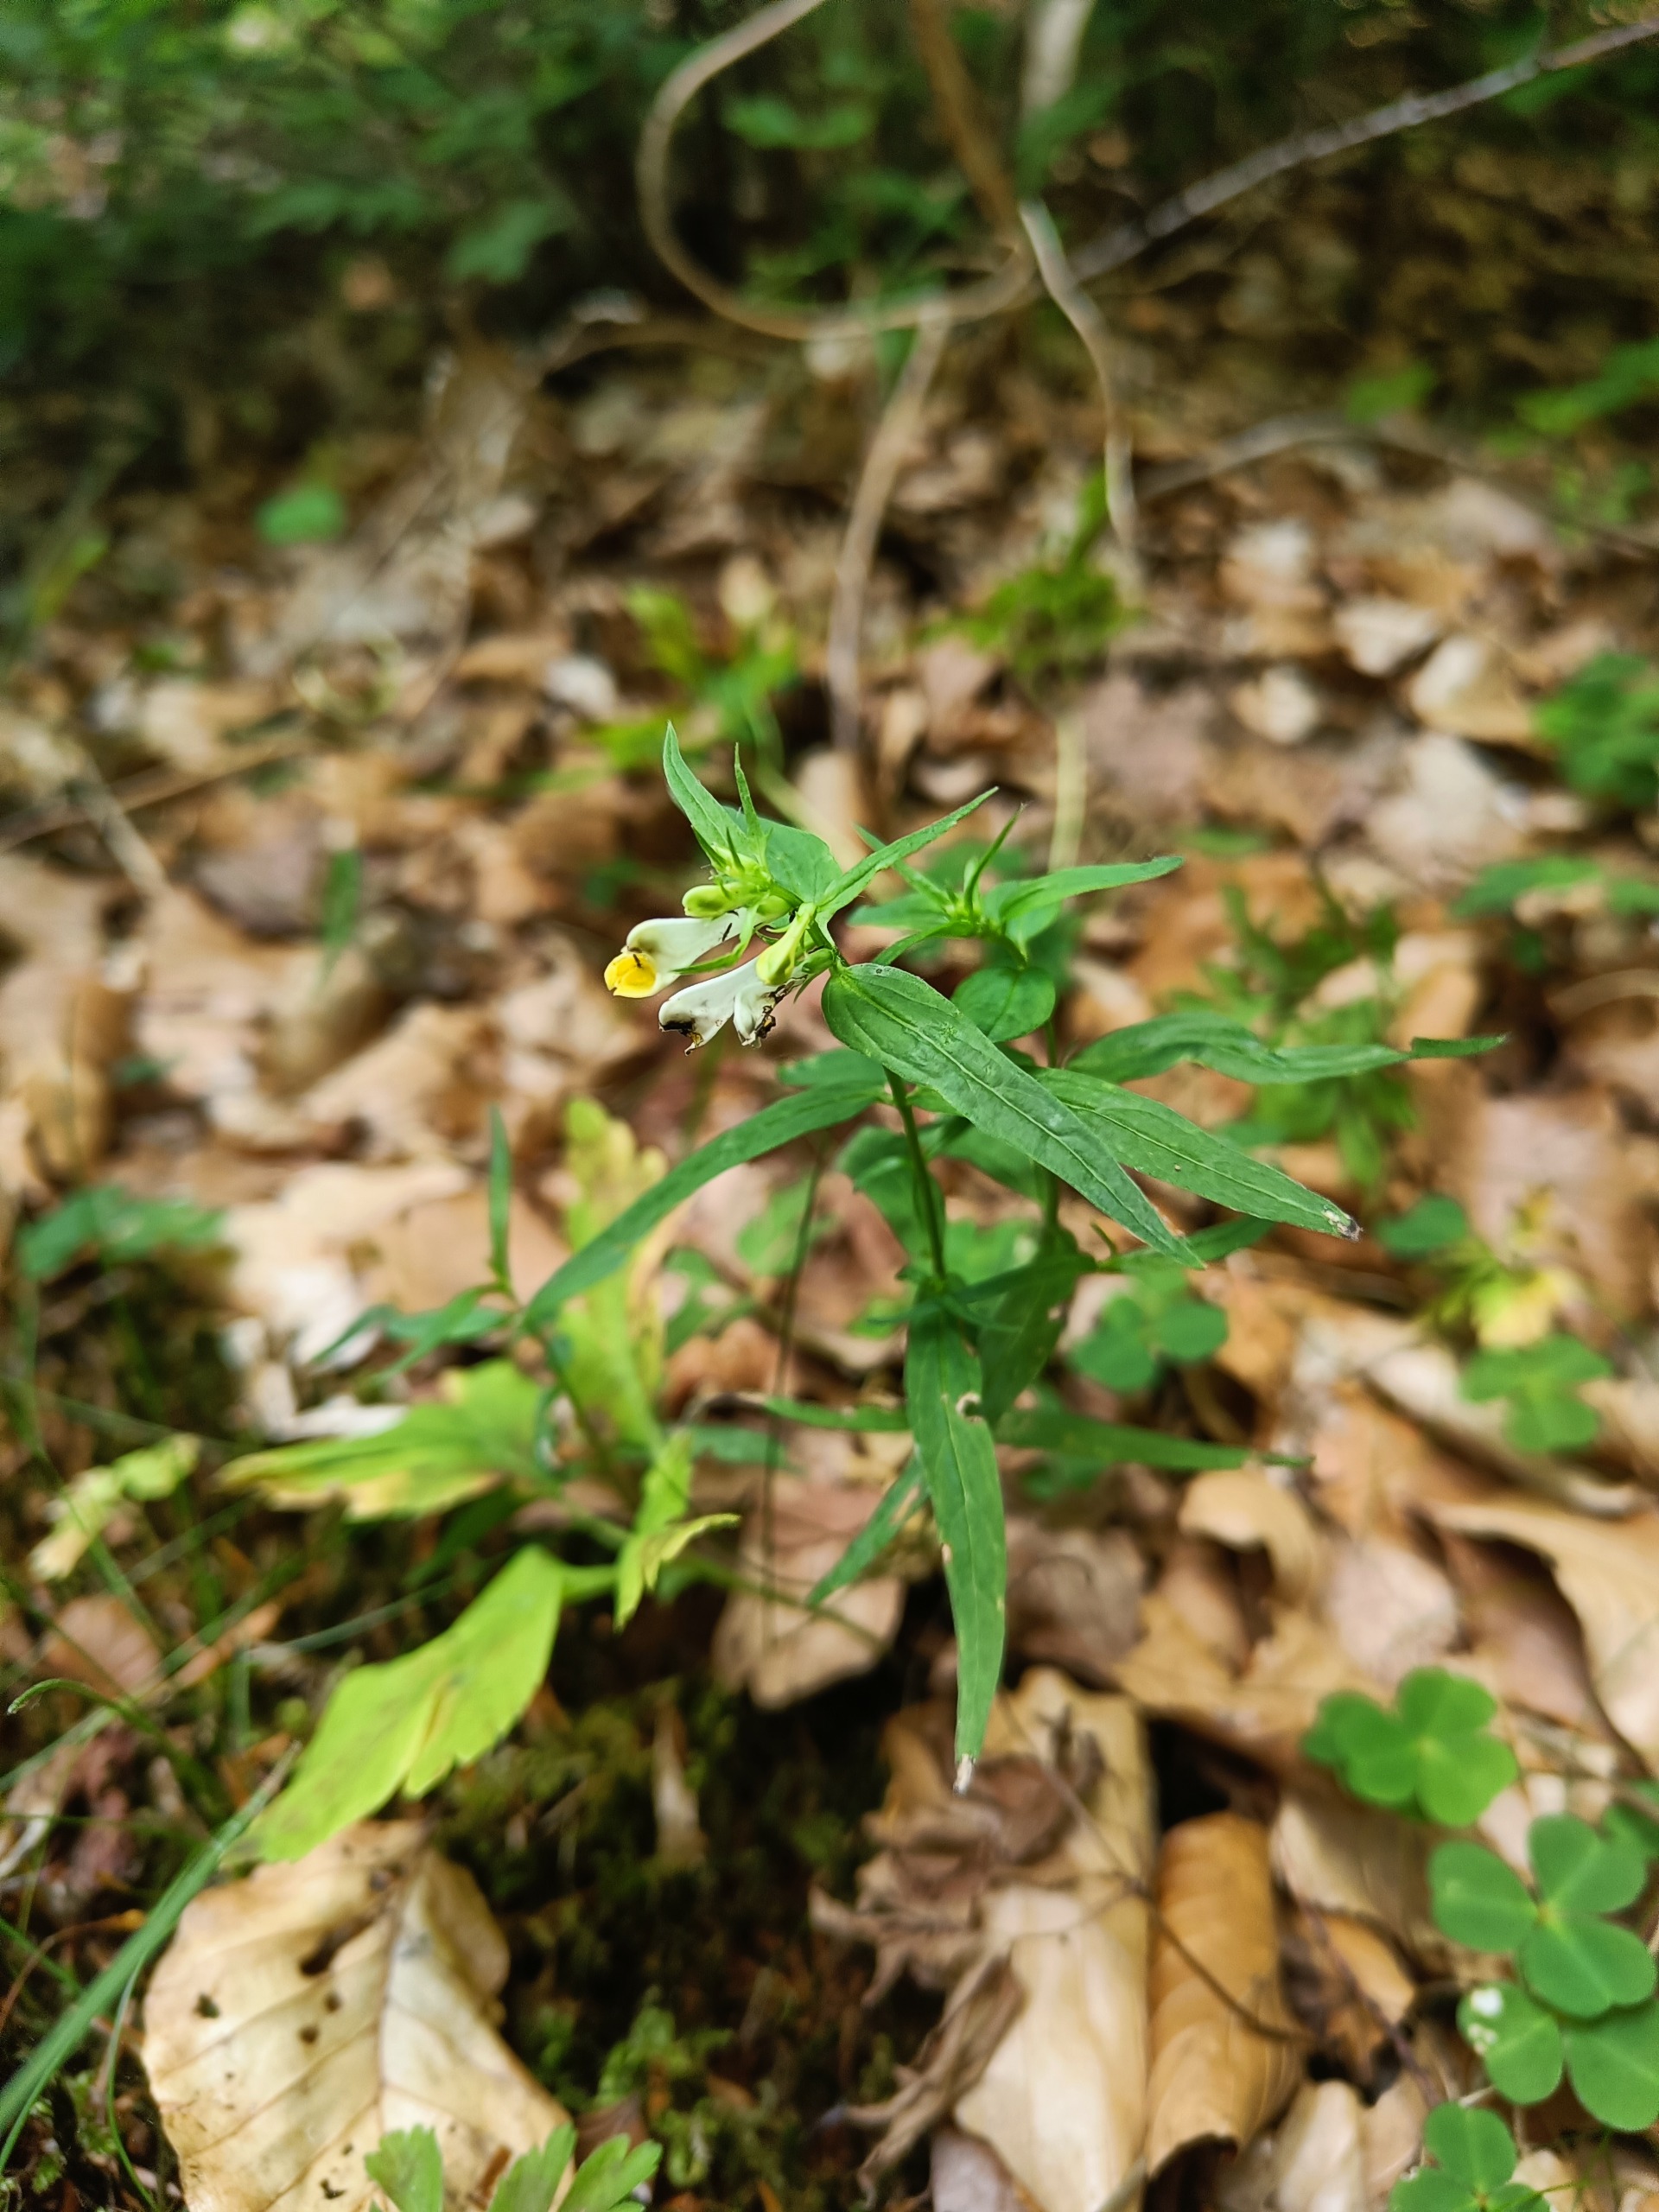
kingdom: Plantae
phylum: Tracheophyta
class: Magnoliopsida
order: Lamiales
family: Orobanchaceae
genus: Melampyrum
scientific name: Melampyrum pratense
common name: Almindelig kohvede
